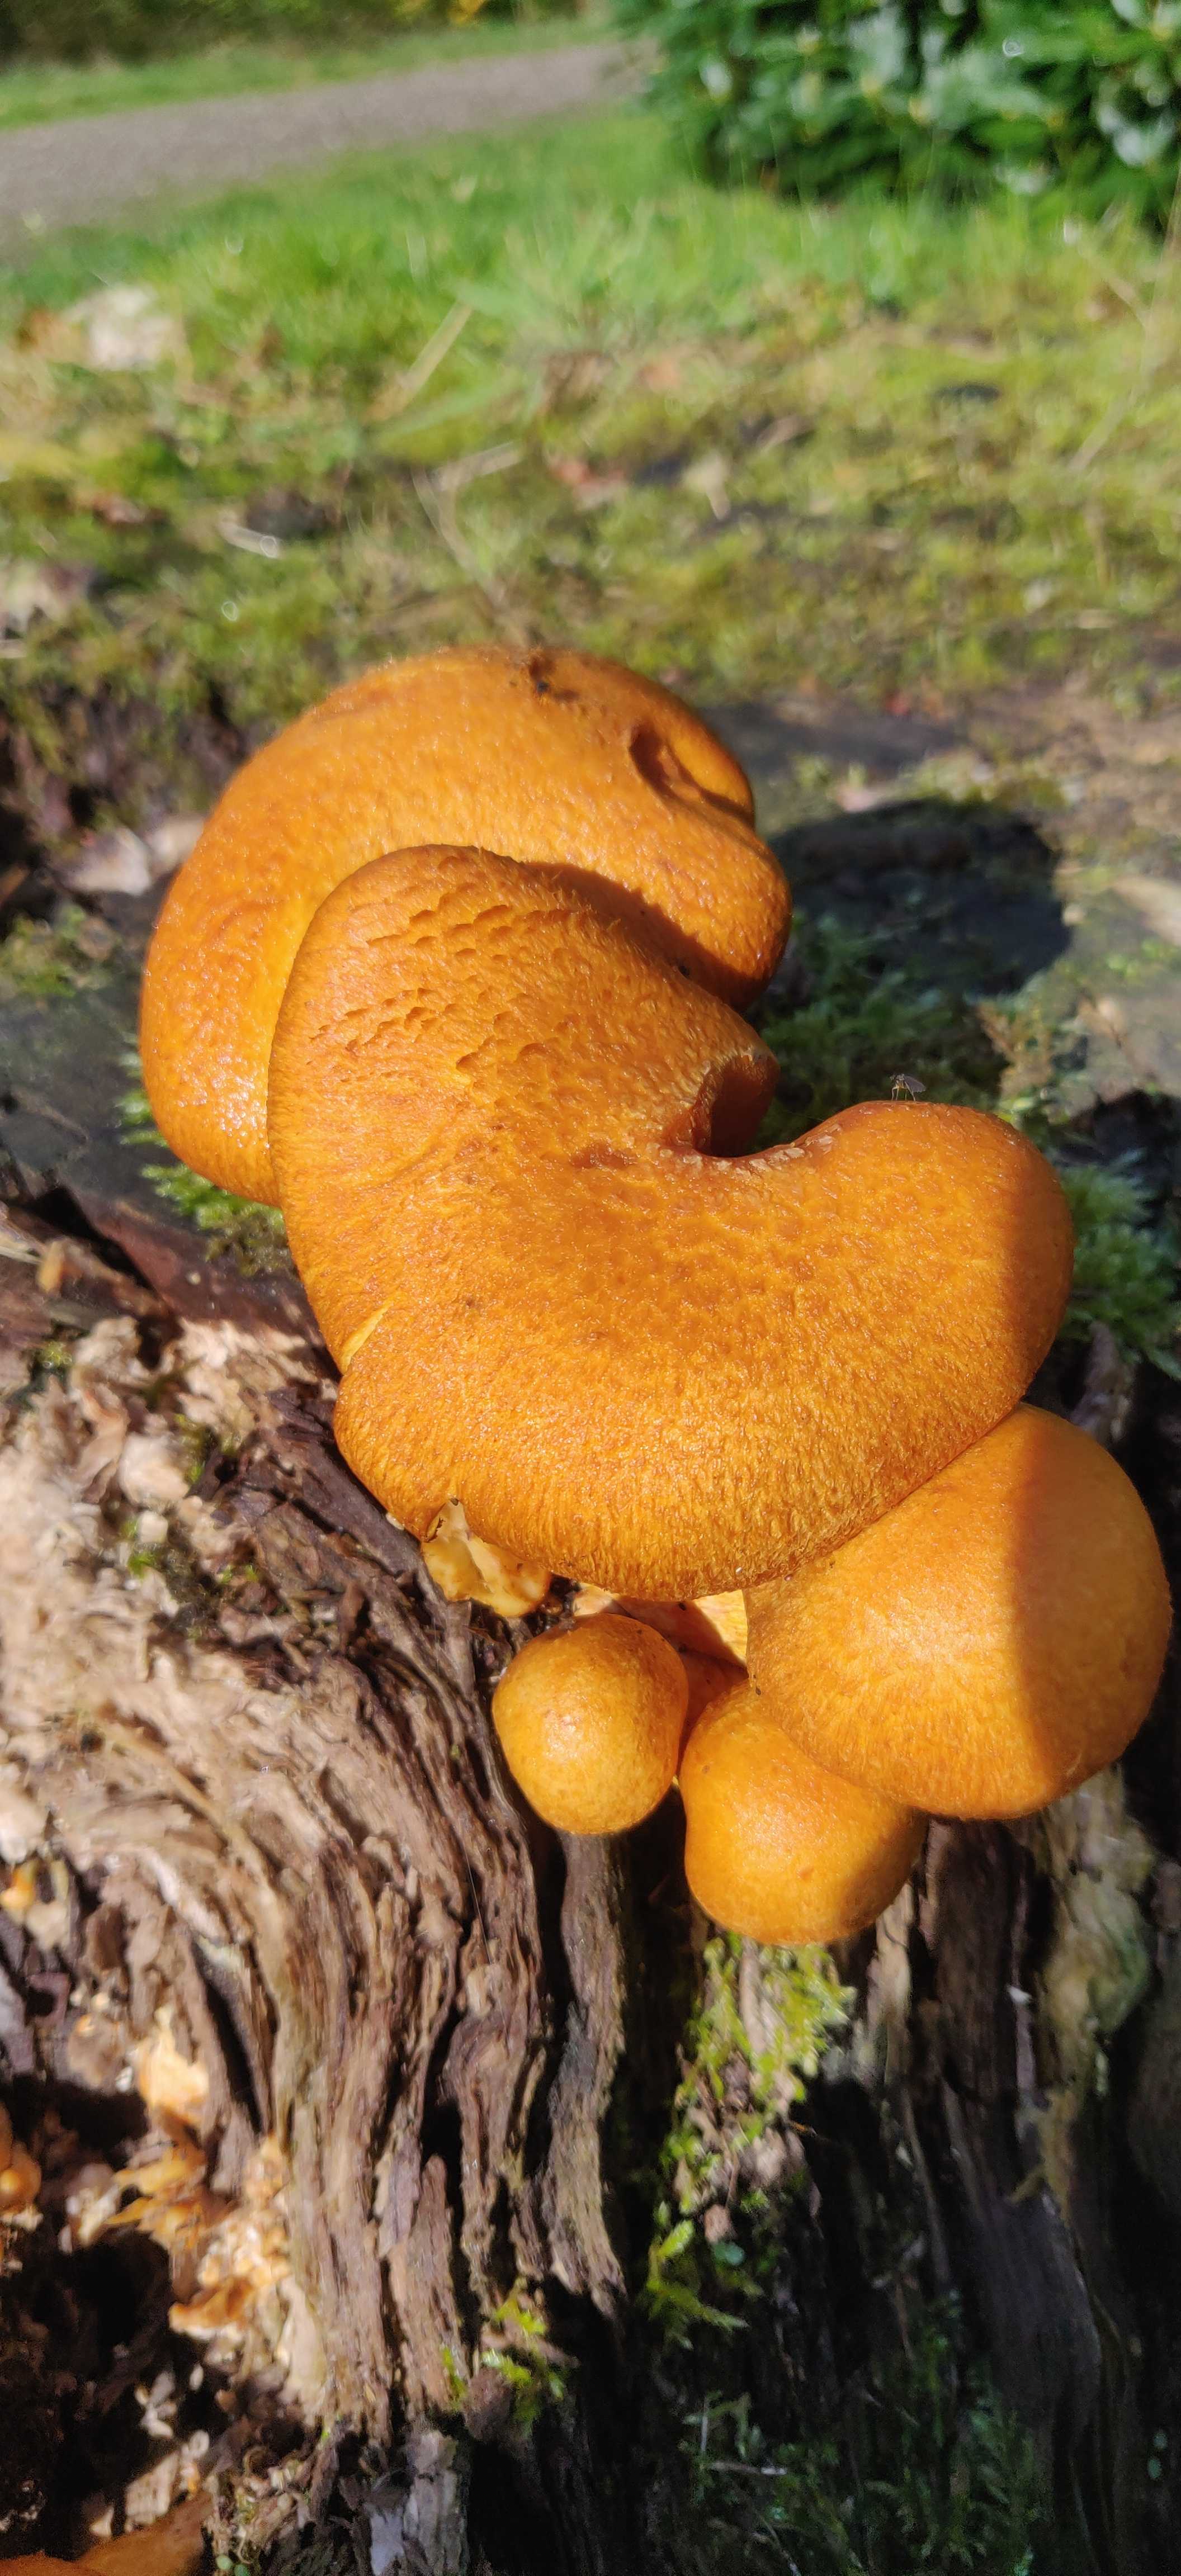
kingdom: Fungi
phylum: Basidiomycota
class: Agaricomycetes
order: Agaricales
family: Hymenogastraceae
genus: Gymnopilus
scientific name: Gymnopilus spectabilis
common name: fibret flammehat
